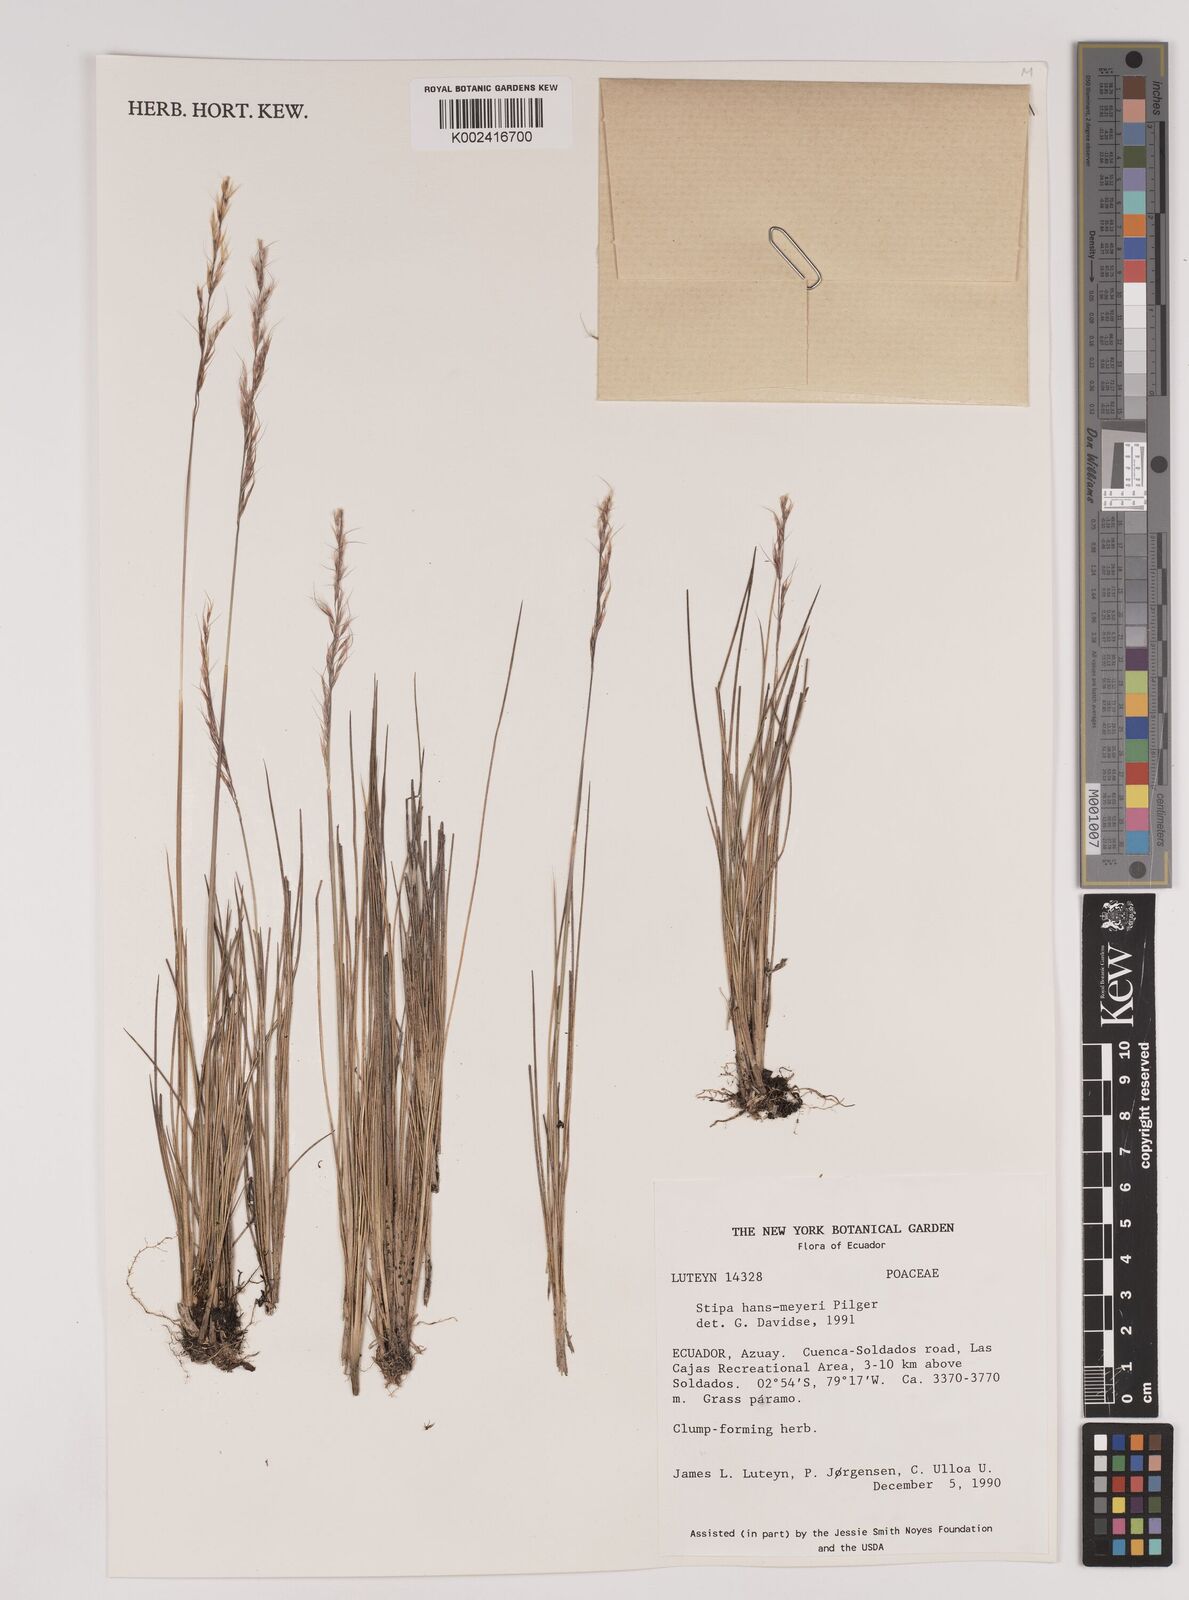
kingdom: Plantae
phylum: Tracheophyta
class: Liliopsida
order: Poales
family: Poaceae
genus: Stipa
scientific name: Stipa hans-meyeri
